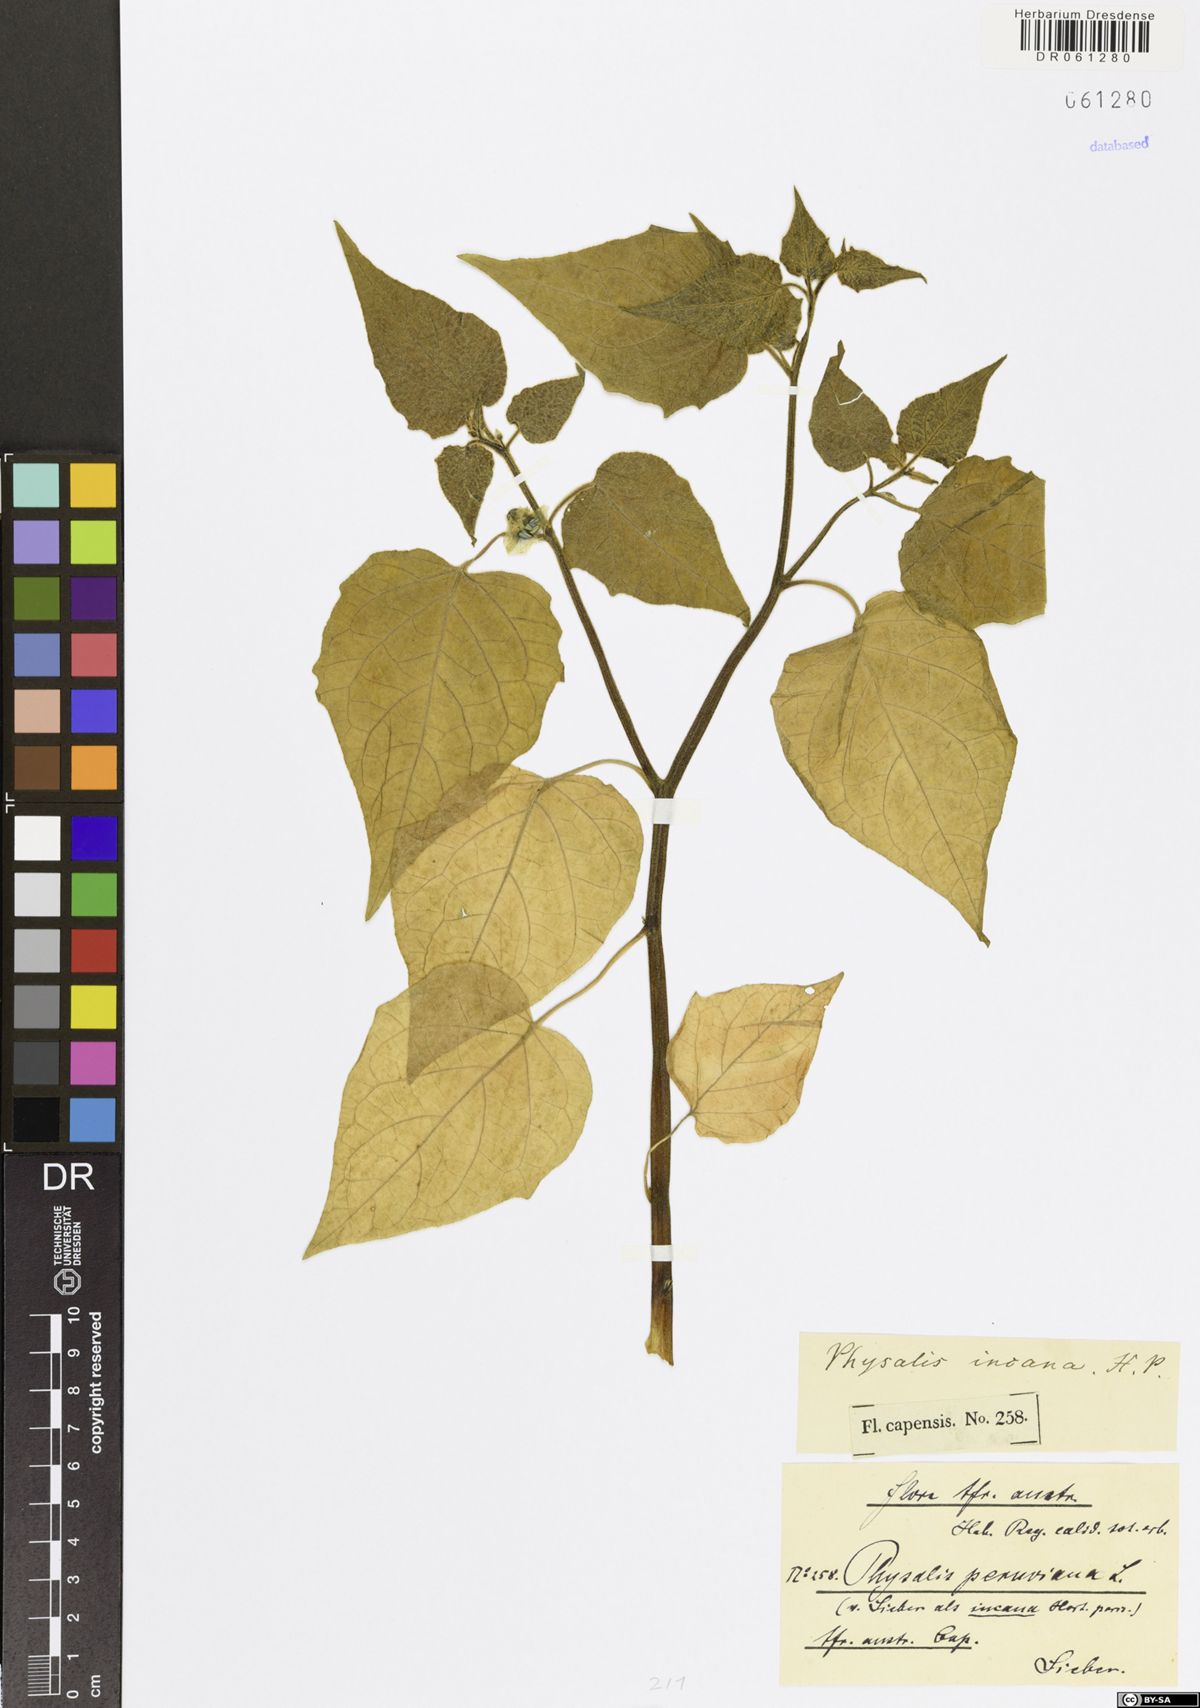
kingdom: Plantae
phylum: Tracheophyta
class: Magnoliopsida
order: Solanales
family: Solanaceae
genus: Physalis
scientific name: Physalis peruviana
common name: Cape-gooseberry
